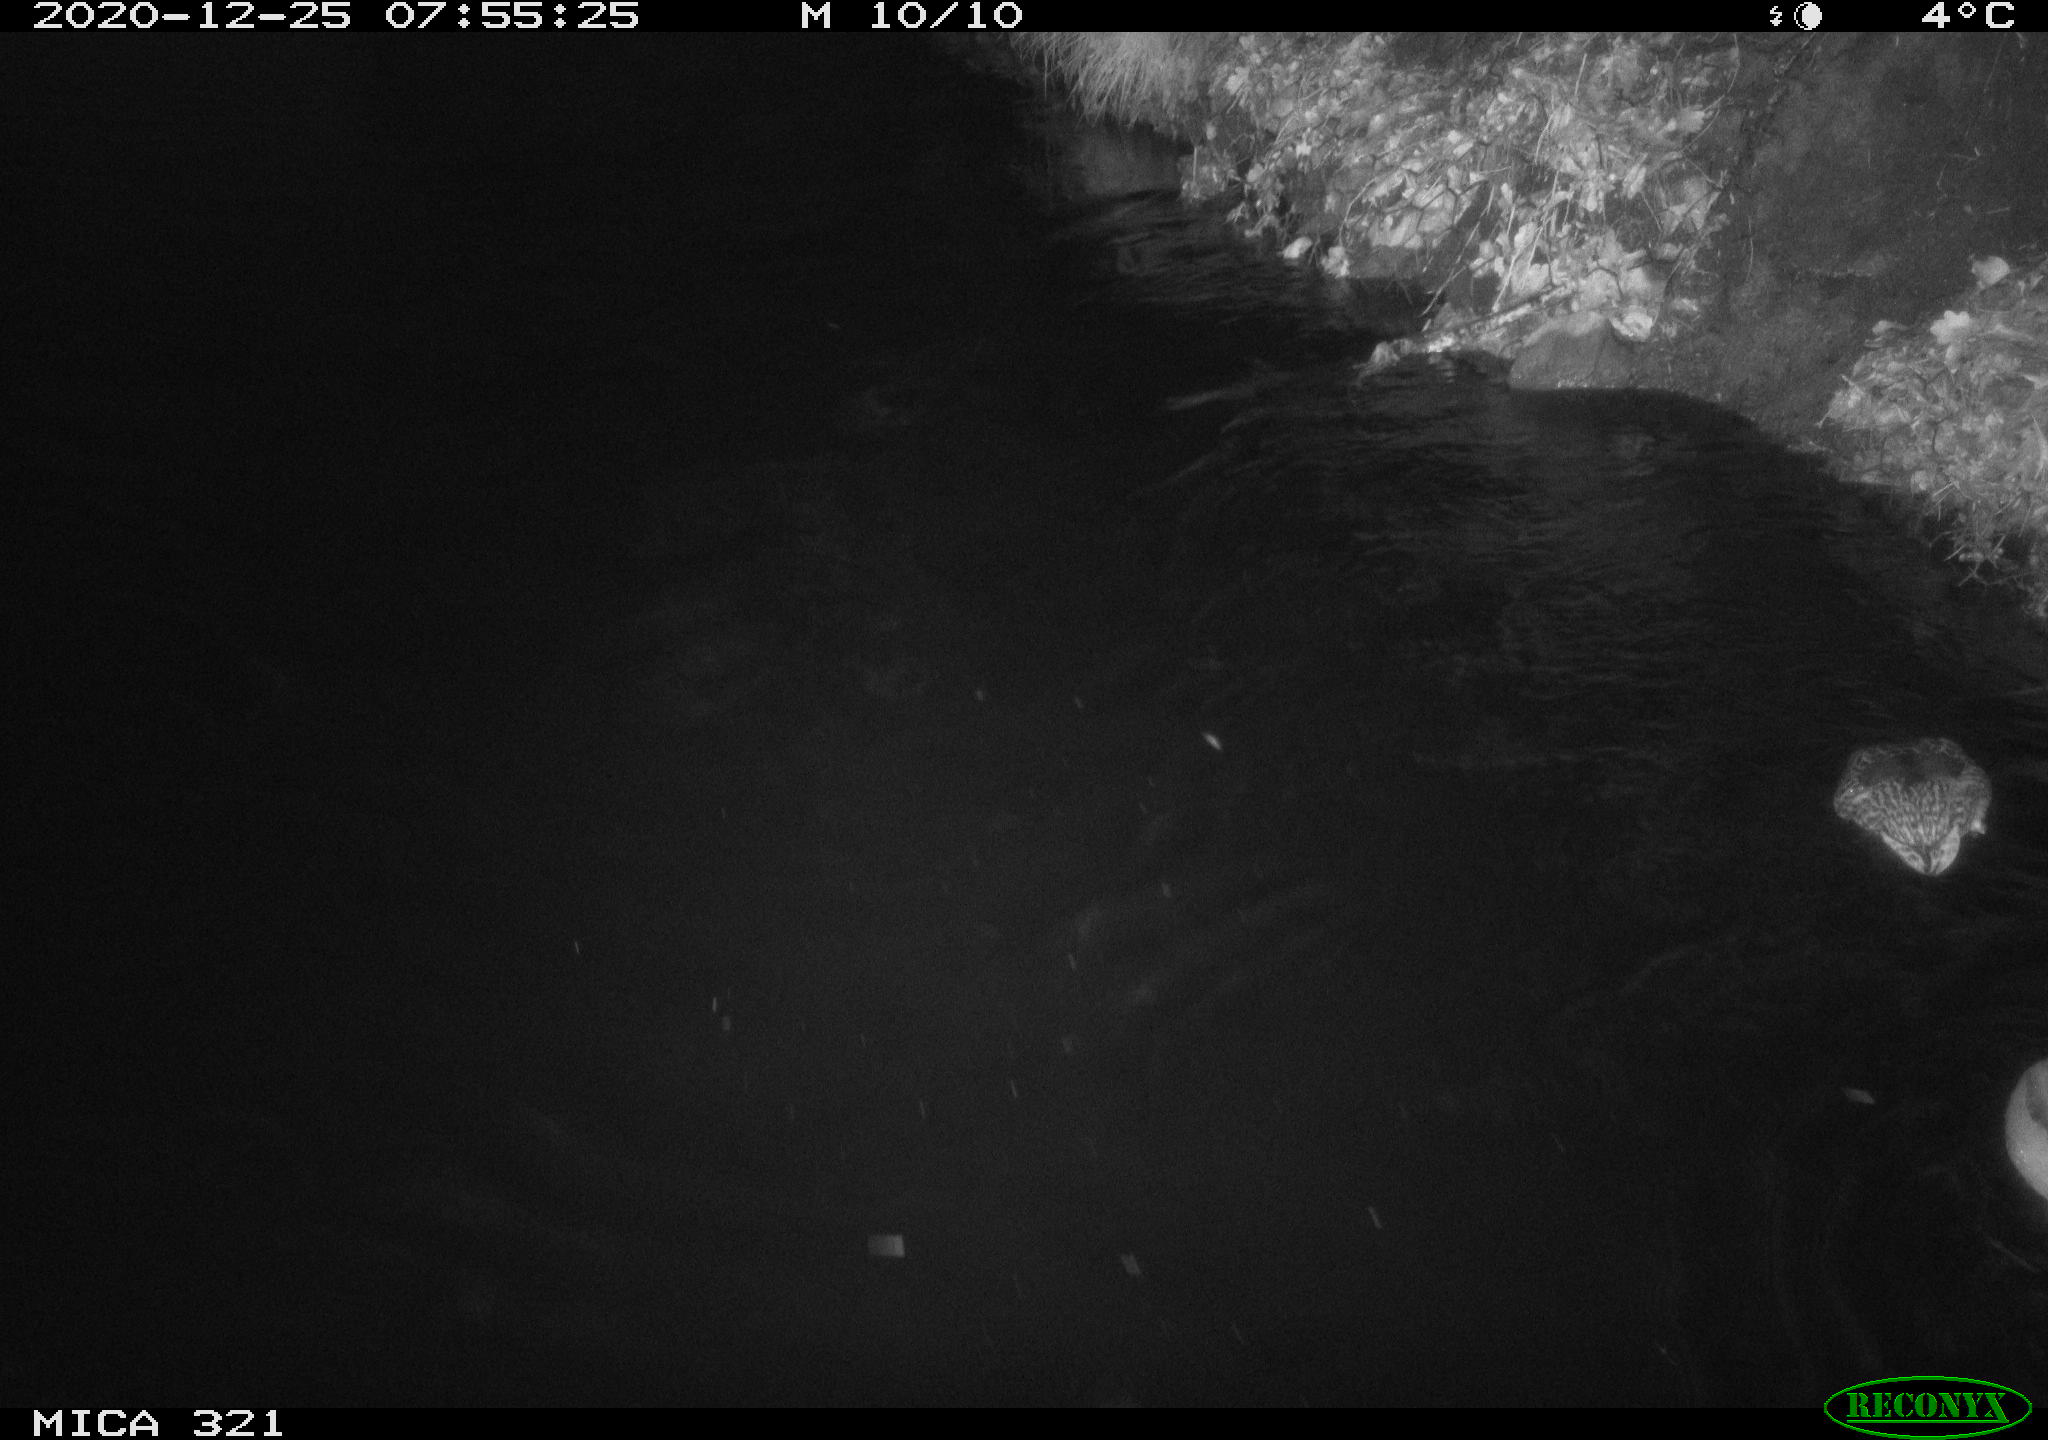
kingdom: Animalia
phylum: Chordata
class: Aves
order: Anseriformes
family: Anatidae
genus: Anas
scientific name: Anas platyrhynchos
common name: Mallard
